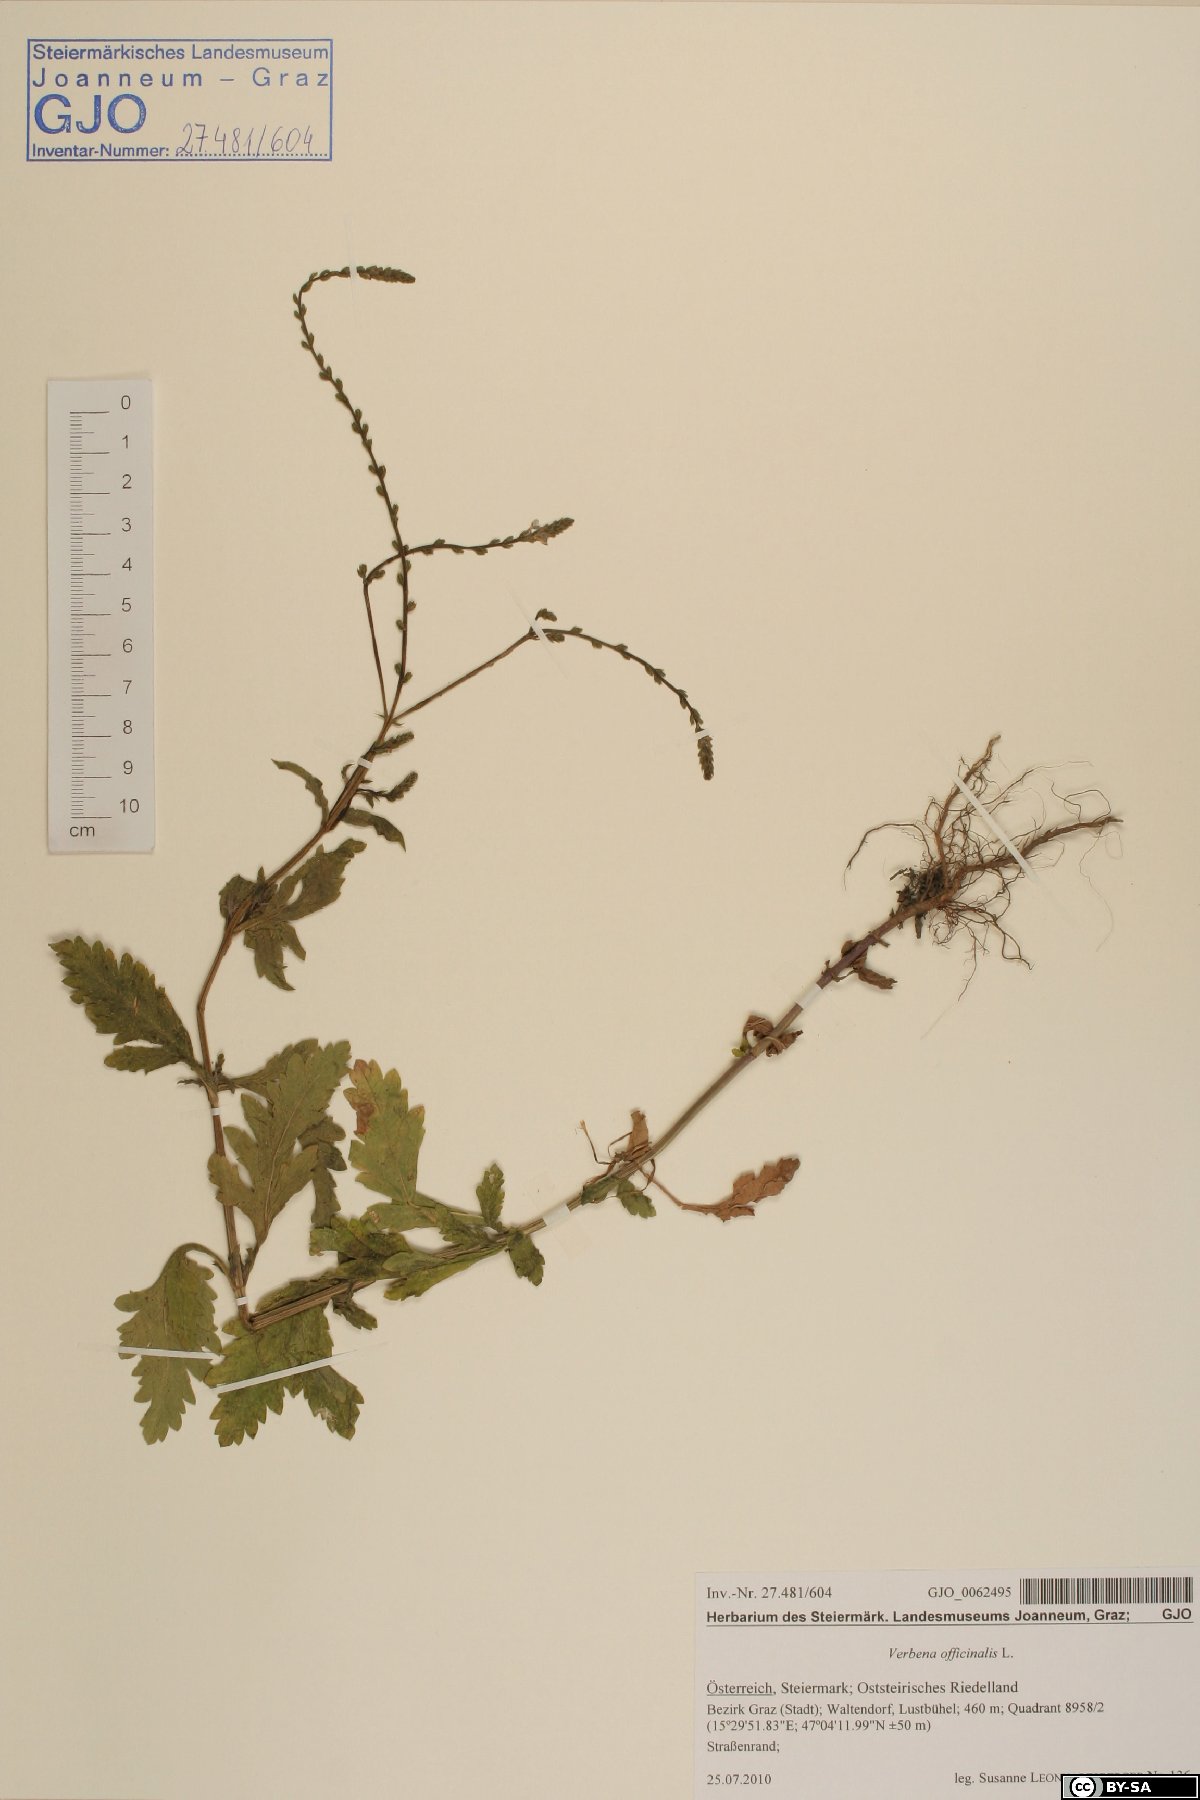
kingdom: Plantae
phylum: Tracheophyta
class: Magnoliopsida
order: Lamiales
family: Verbenaceae
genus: Verbena
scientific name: Verbena officinalis
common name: Vervain
